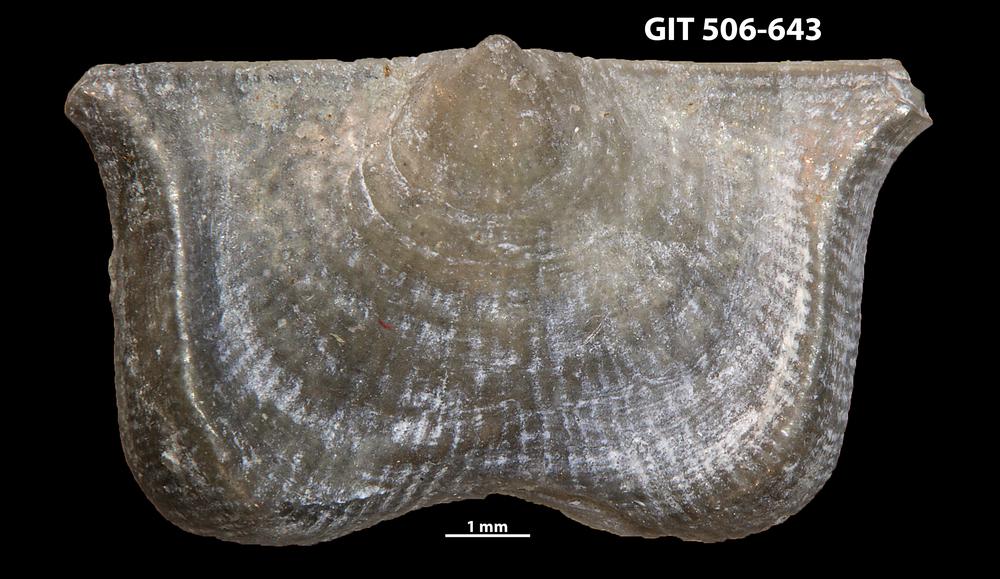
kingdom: Animalia
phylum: Brachiopoda
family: Strophomenidae
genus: Leptaena
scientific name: Leptaena altera
